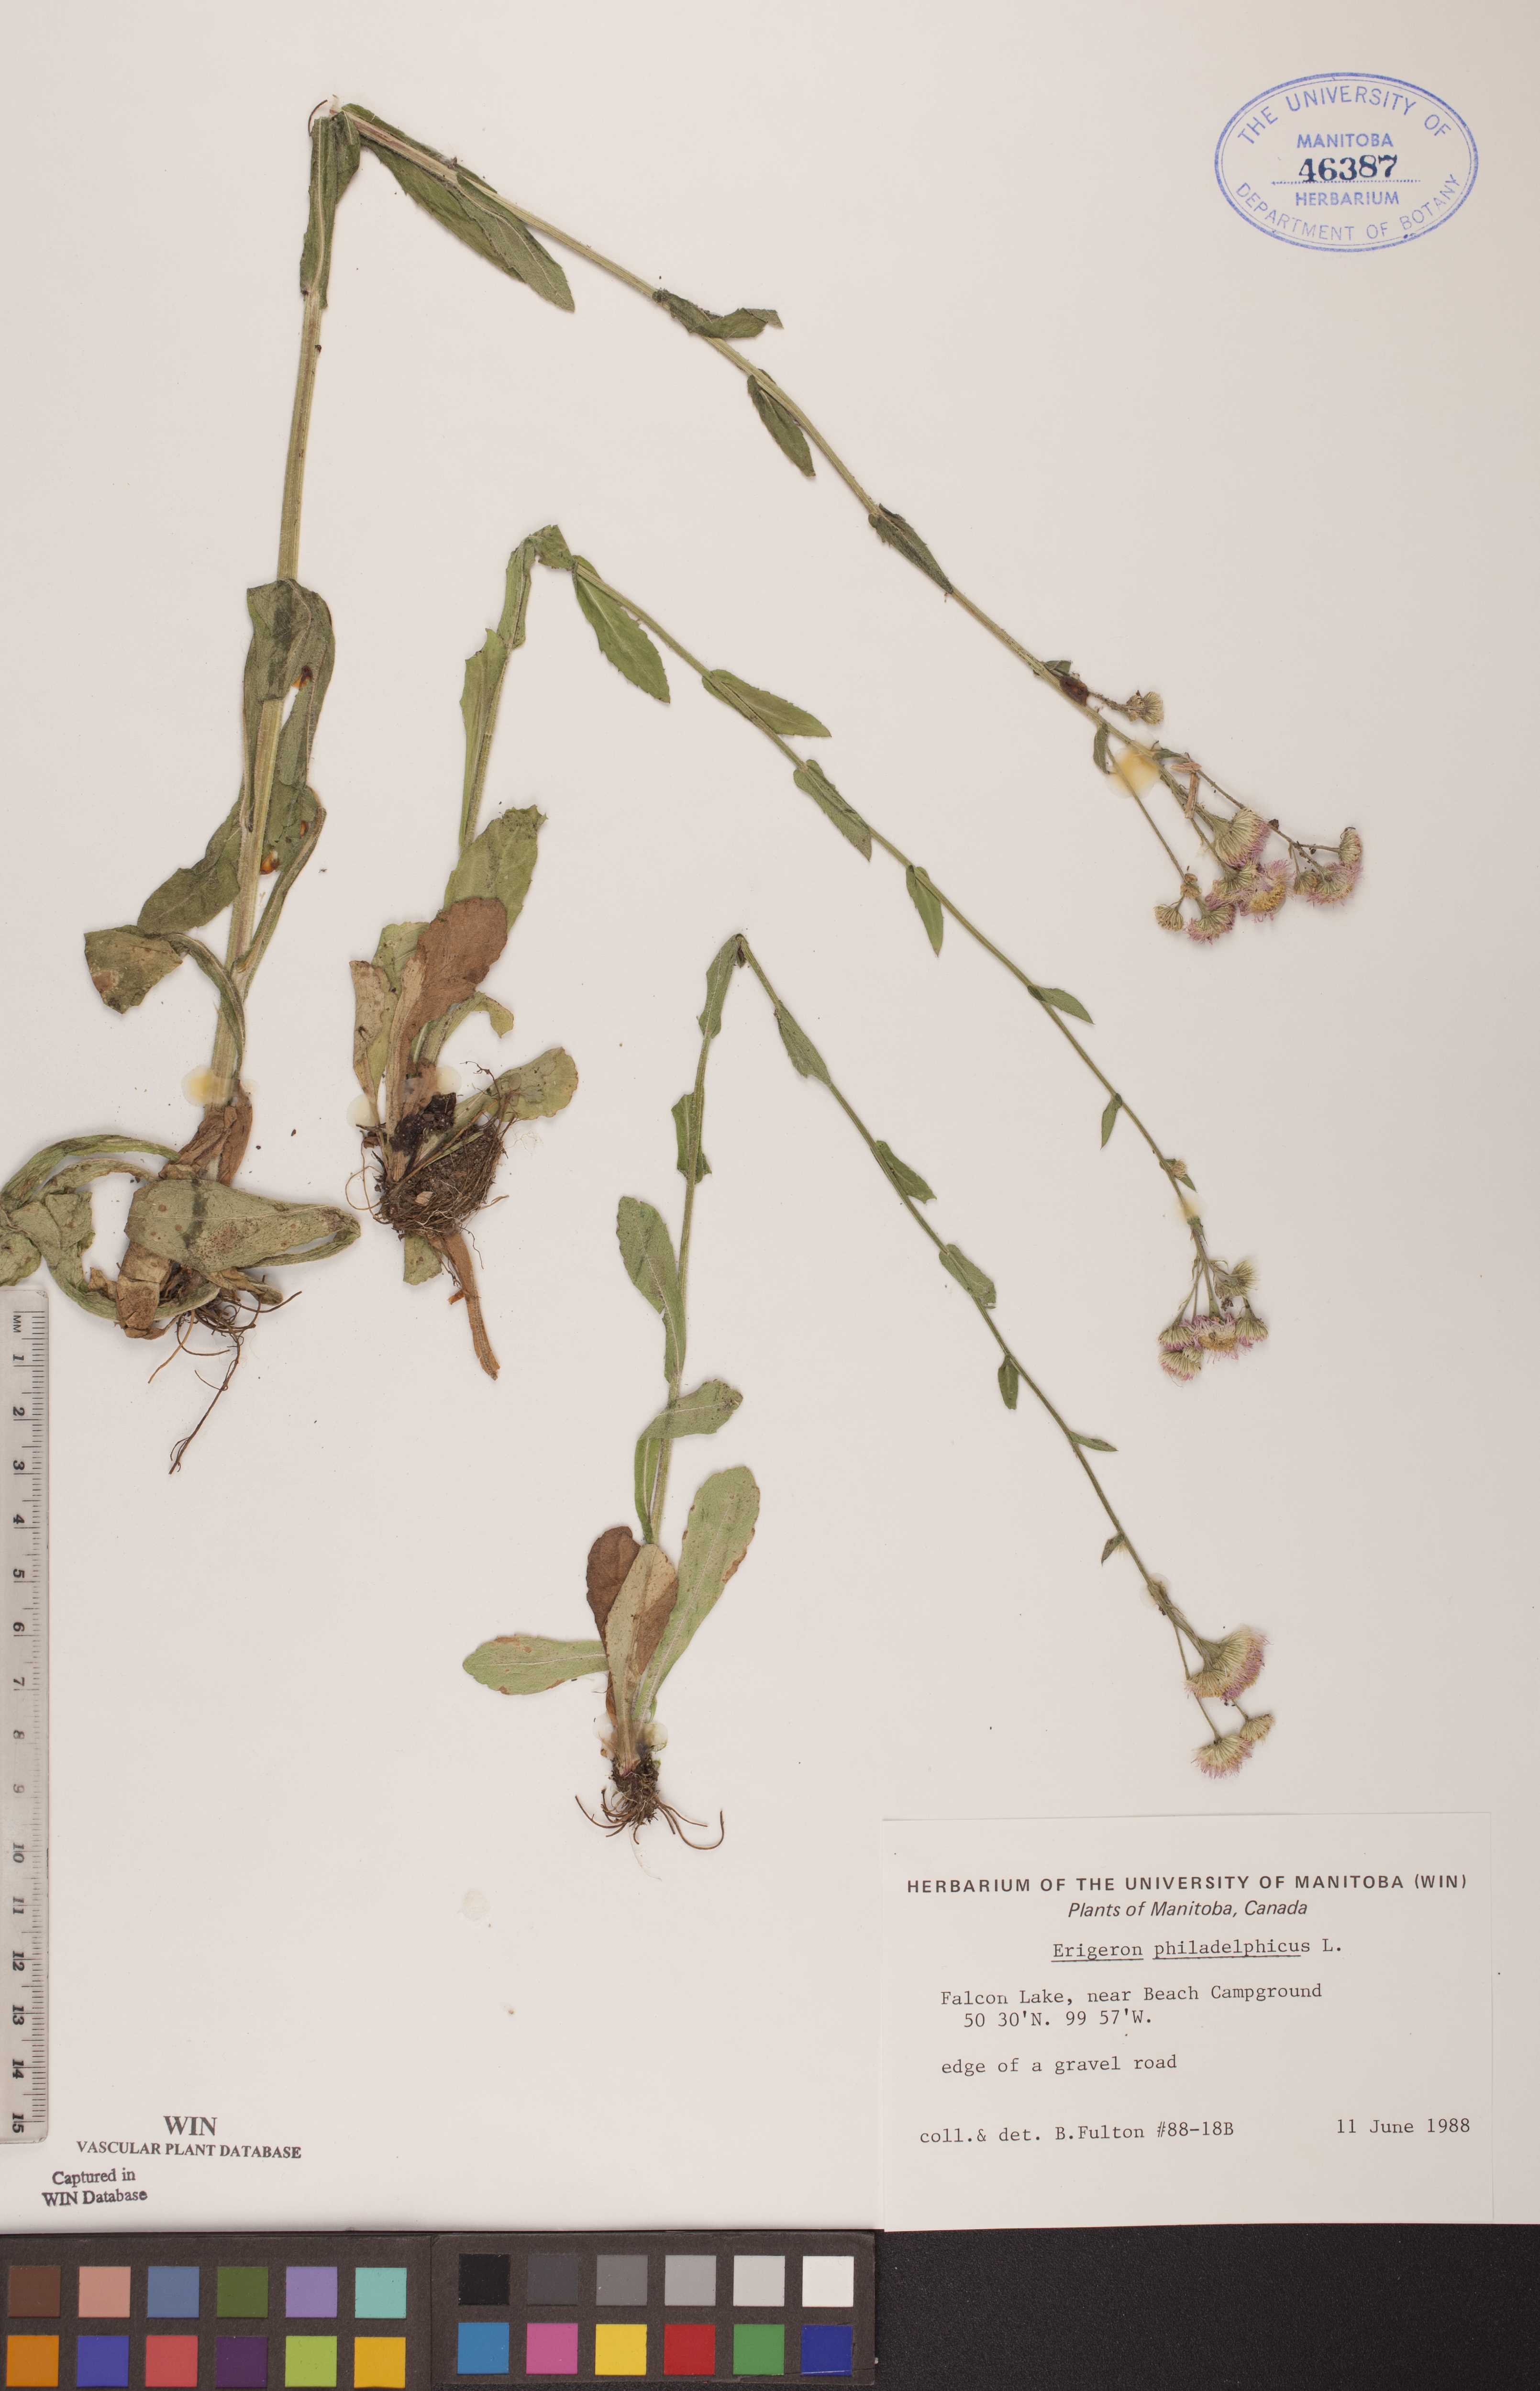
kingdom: Plantae
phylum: Tracheophyta
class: Magnoliopsida
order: Asterales
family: Asteraceae
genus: Erigeron
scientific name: Erigeron philadelphicus
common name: Robin's-plantain
